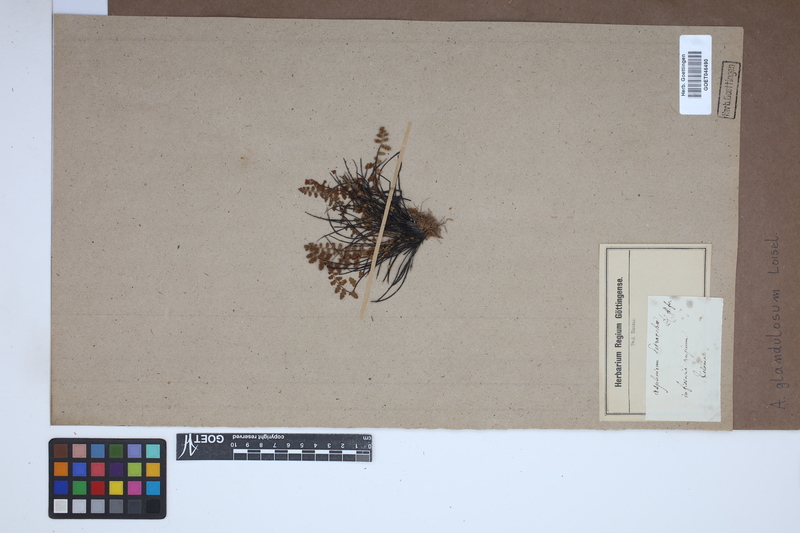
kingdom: Plantae
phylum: Tracheophyta
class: Polypodiopsida
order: Polypodiales
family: Aspleniaceae
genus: Asplenium
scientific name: Asplenium petrarchae
